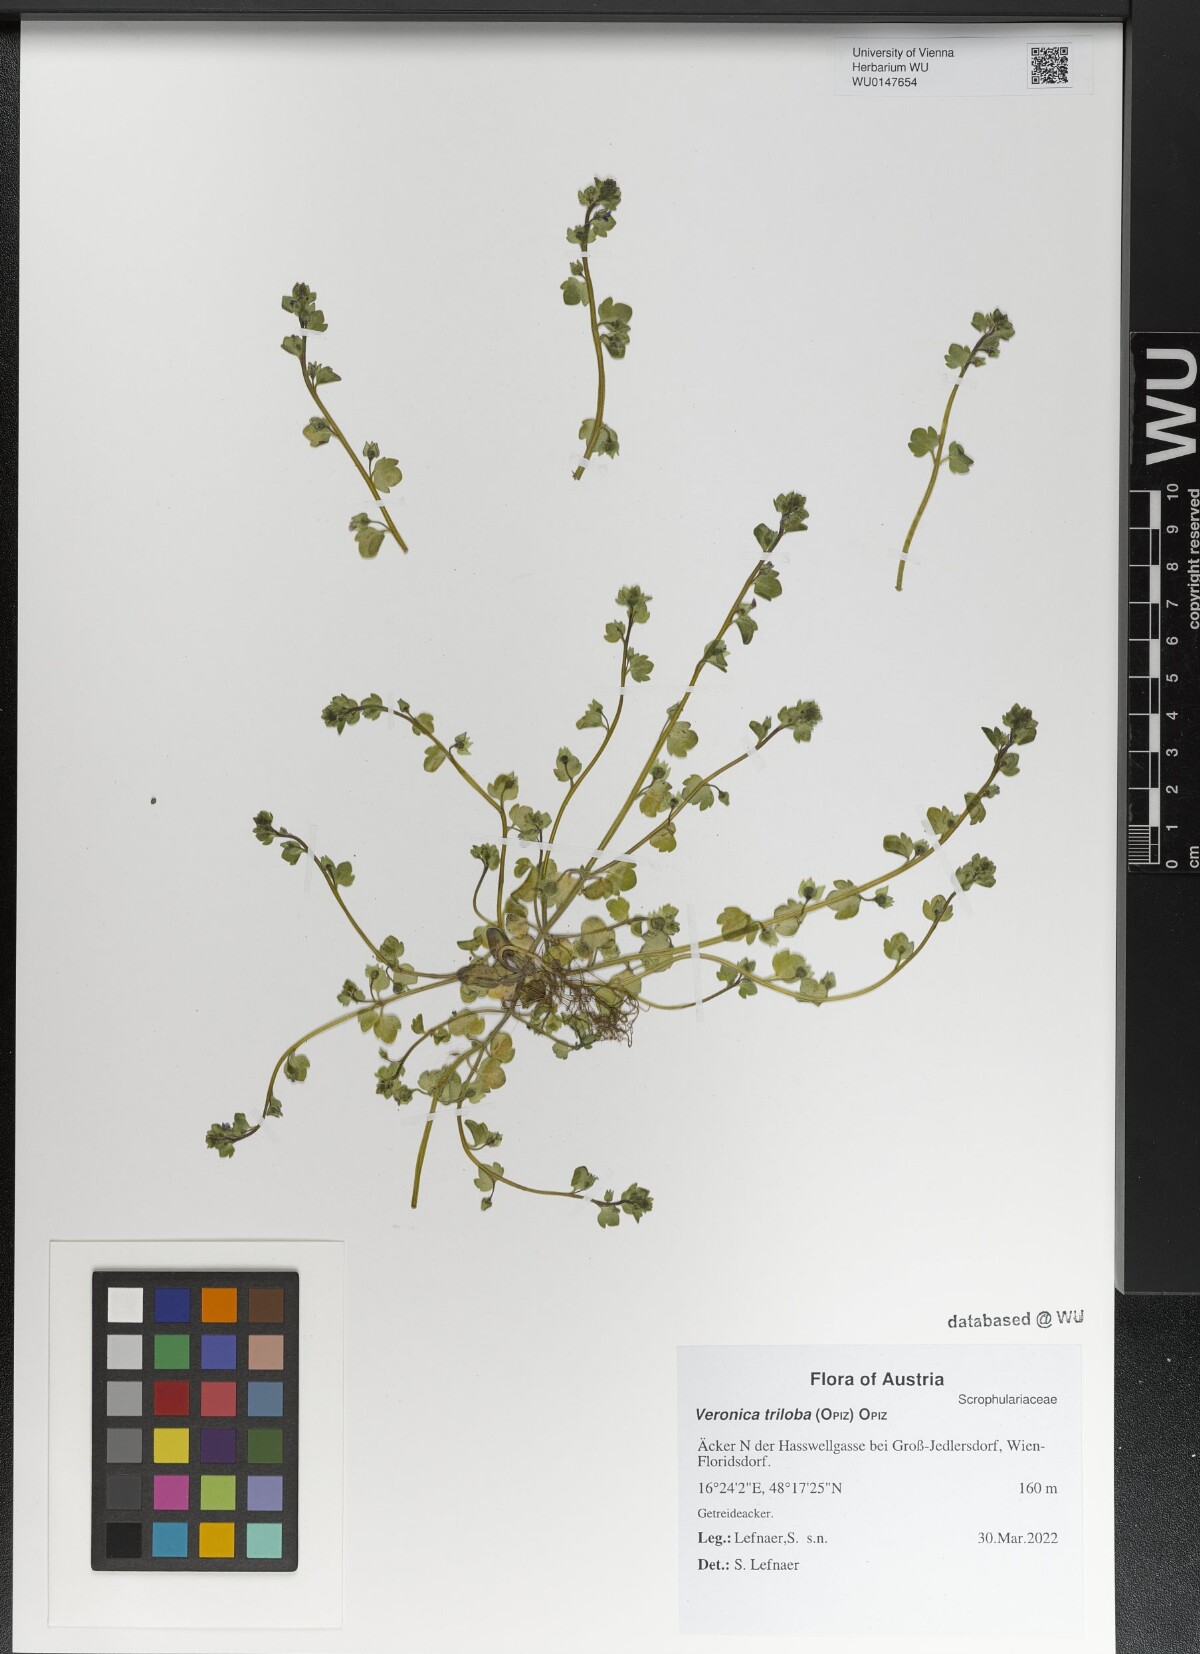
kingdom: Plantae
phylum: Tracheophyta
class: Magnoliopsida
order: Lamiales
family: Plantaginaceae
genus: Veronica
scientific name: Veronica triloba
